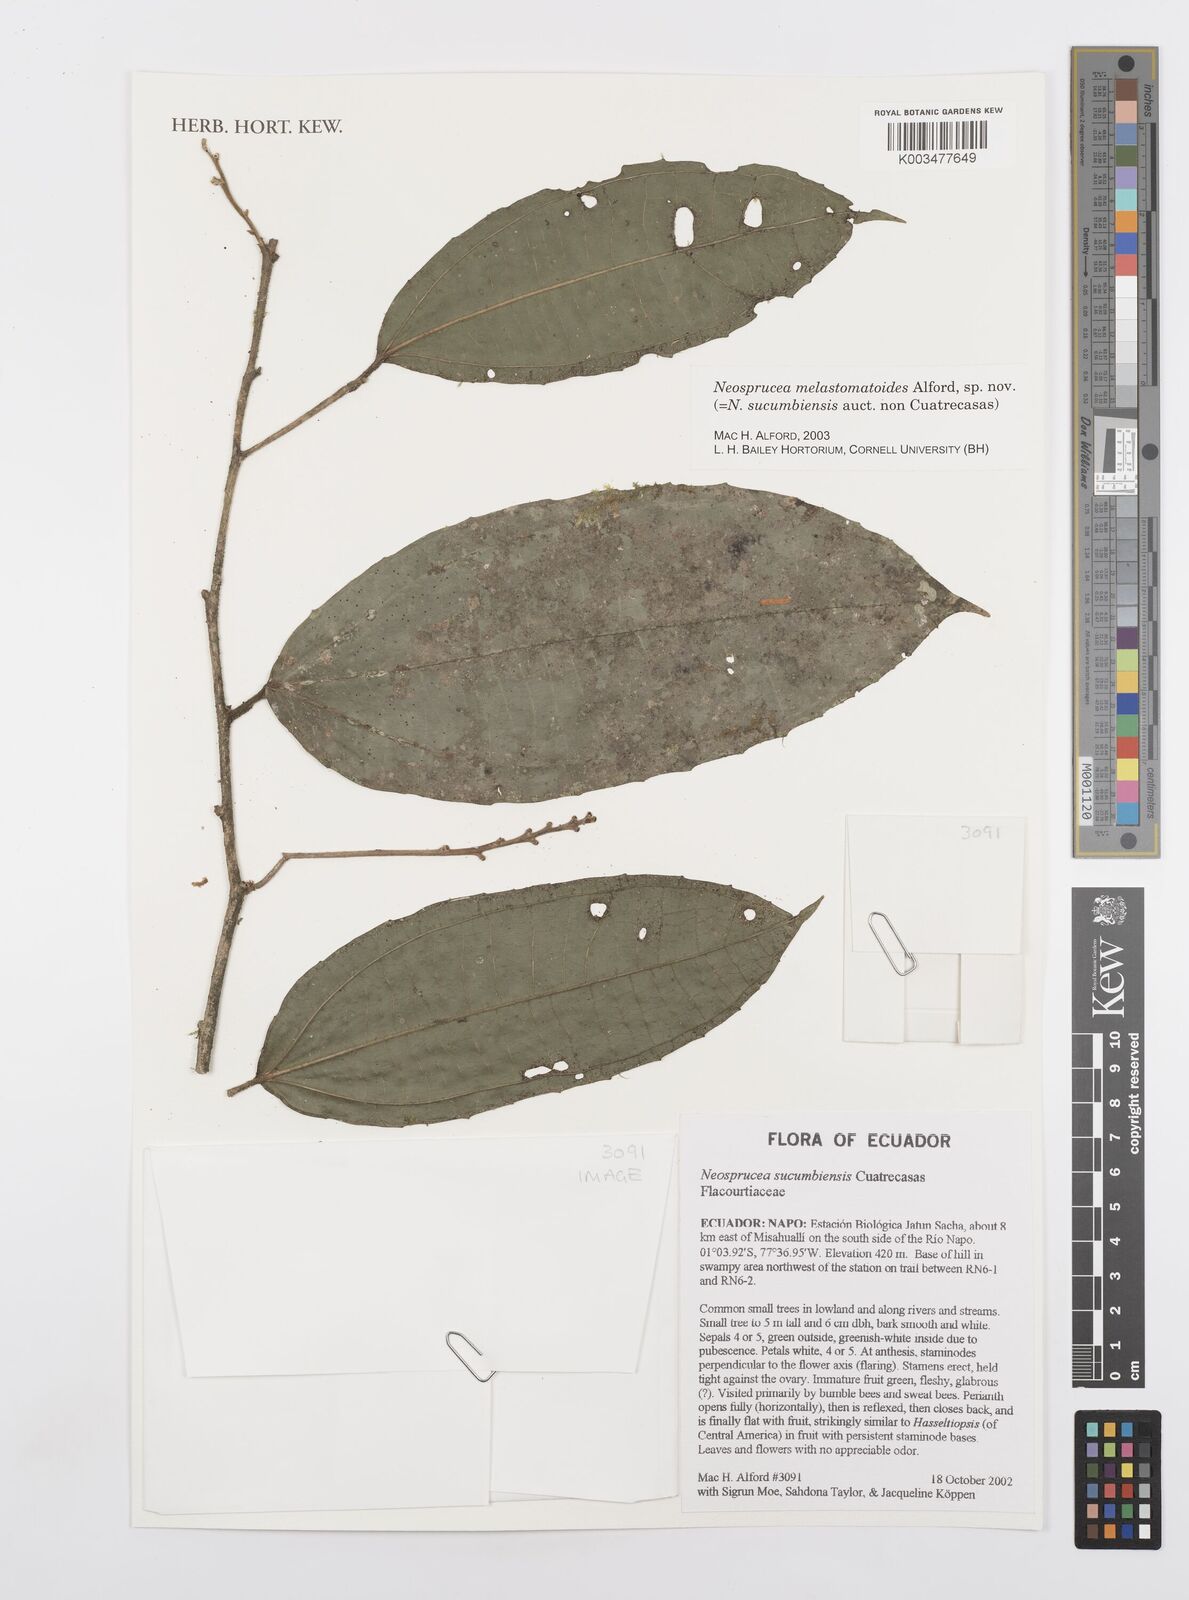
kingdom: Plantae
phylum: Tracheophyta
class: Magnoliopsida
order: Malpighiales
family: Salicaceae
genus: Neosprucea
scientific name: Neosprucea melastomatoides
